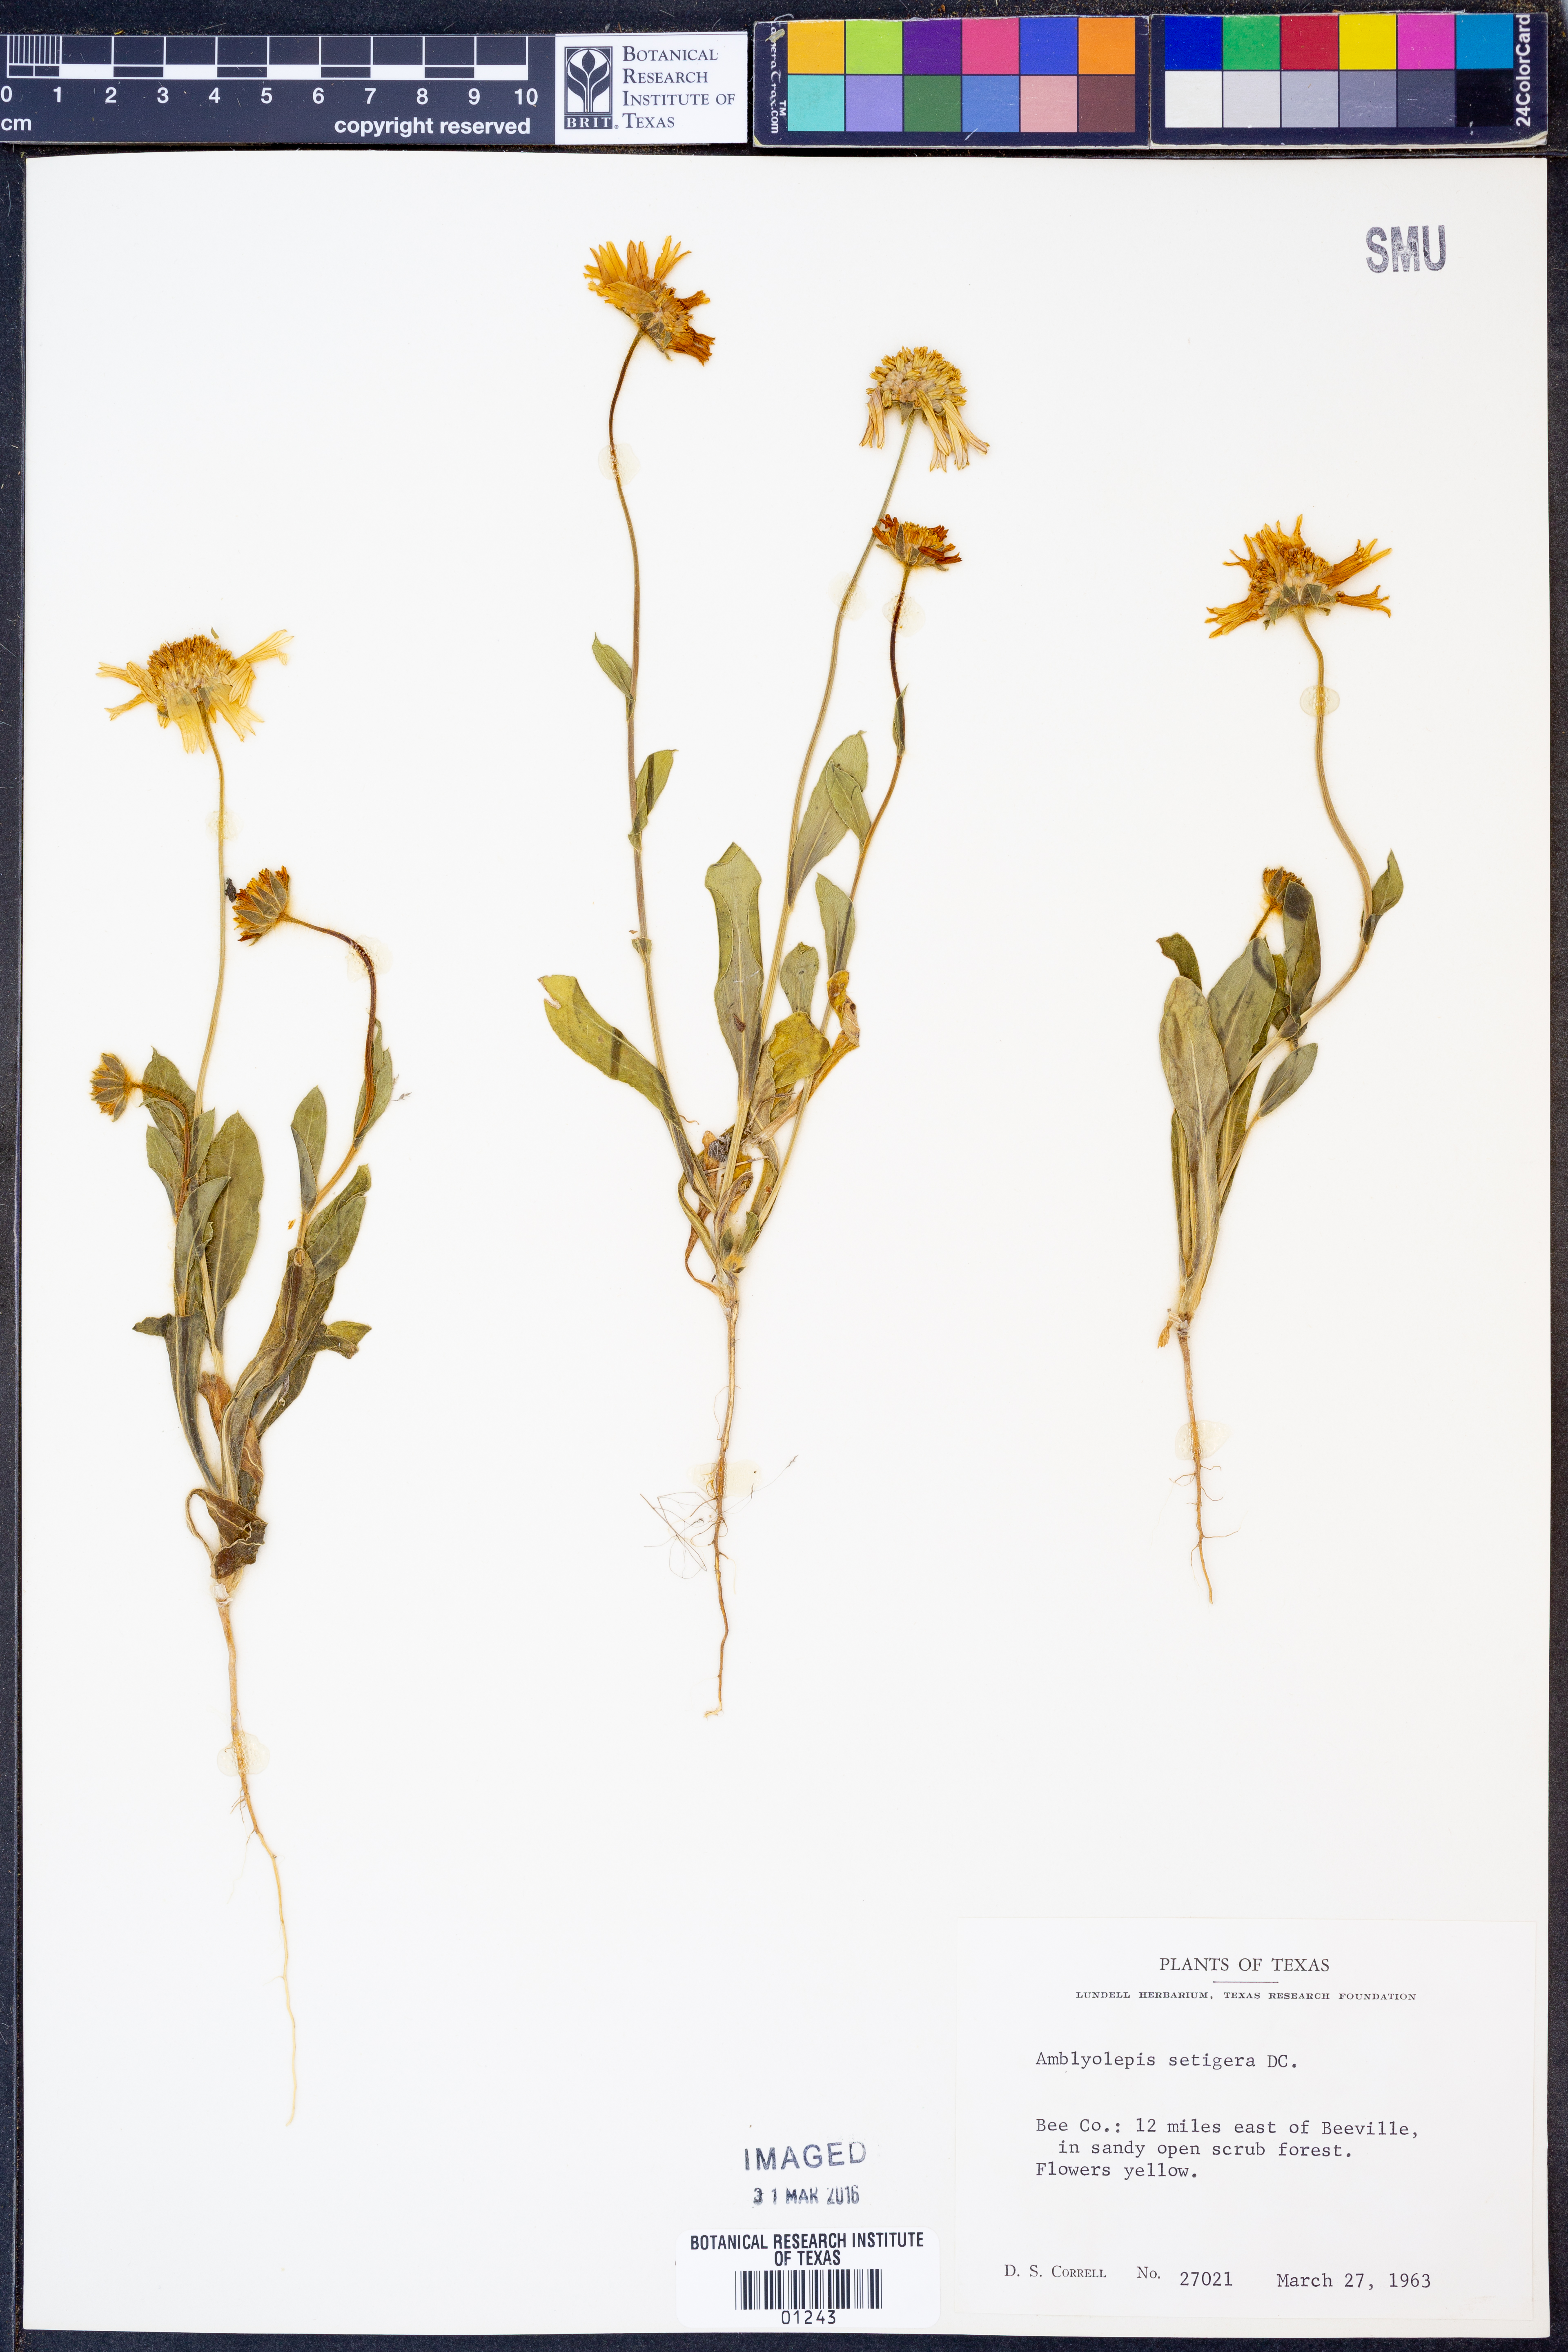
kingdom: Plantae
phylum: Tracheophyta
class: Magnoliopsida
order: Asterales
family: Asteraceae
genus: Amblyolepis
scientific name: Amblyolepis setigera
